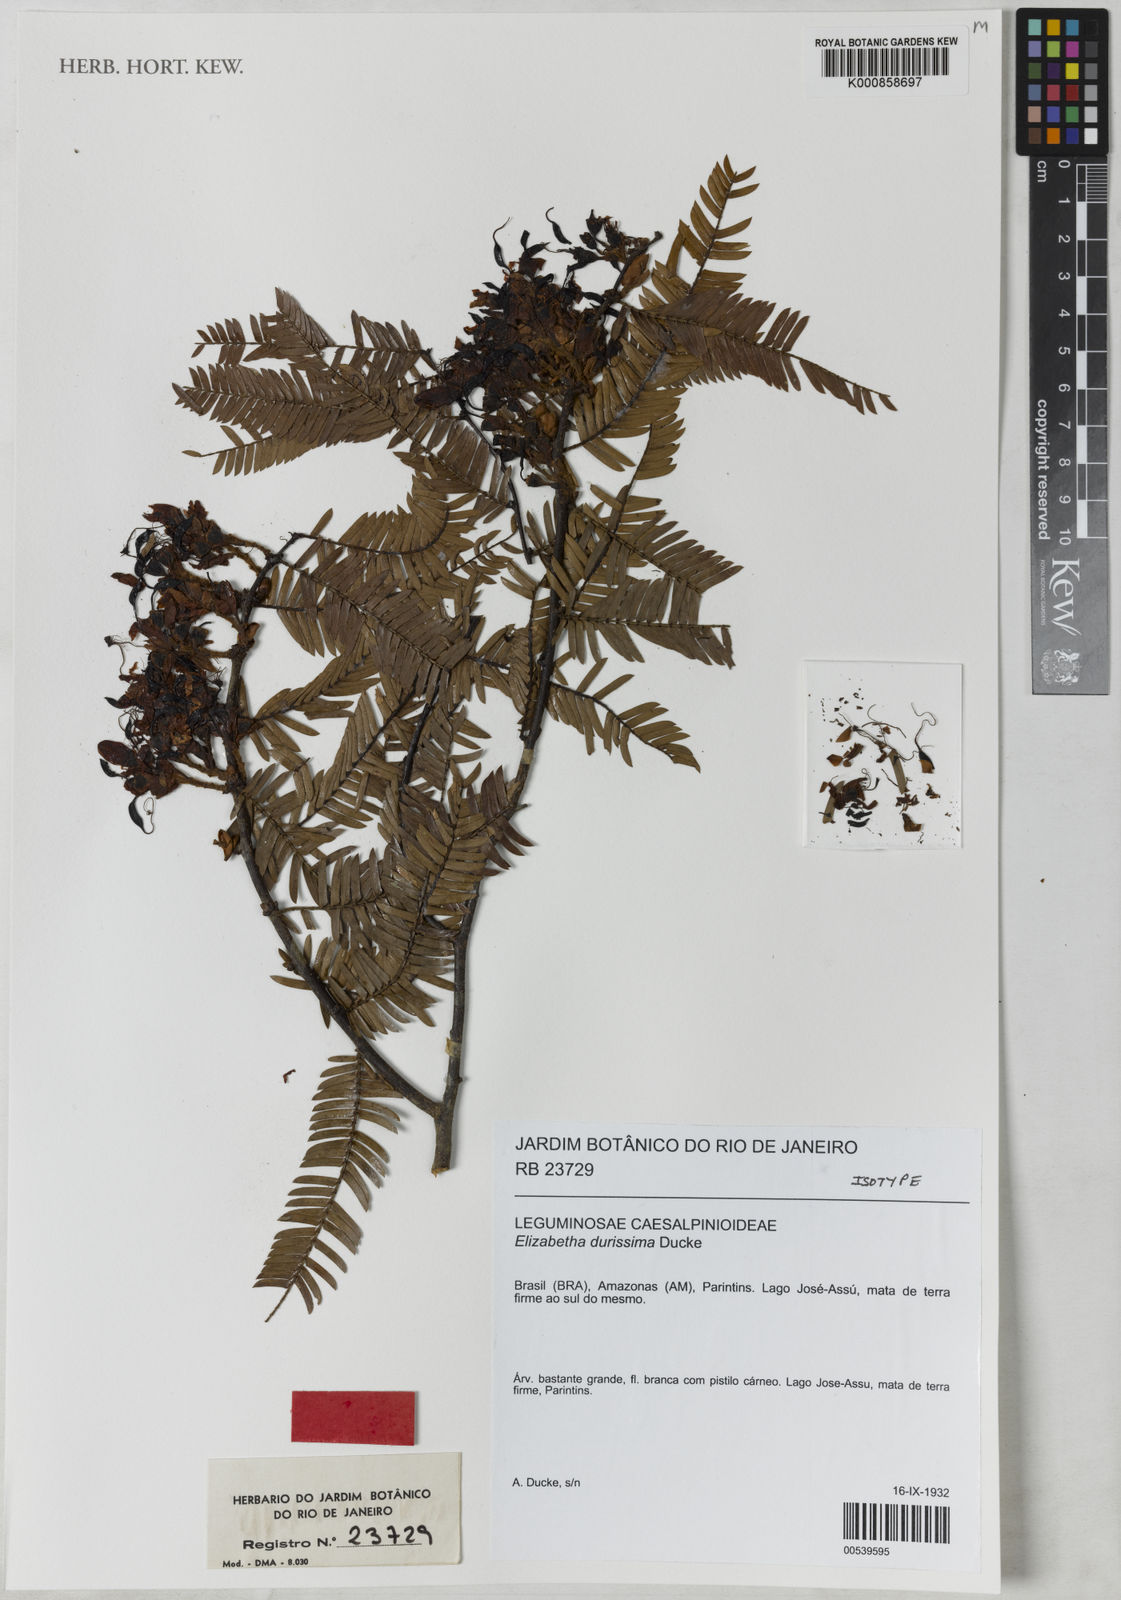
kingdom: Plantae
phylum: Tracheophyta
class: Magnoliopsida
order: Fabales
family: Fabaceae
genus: Paloue
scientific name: Paloue durissima
